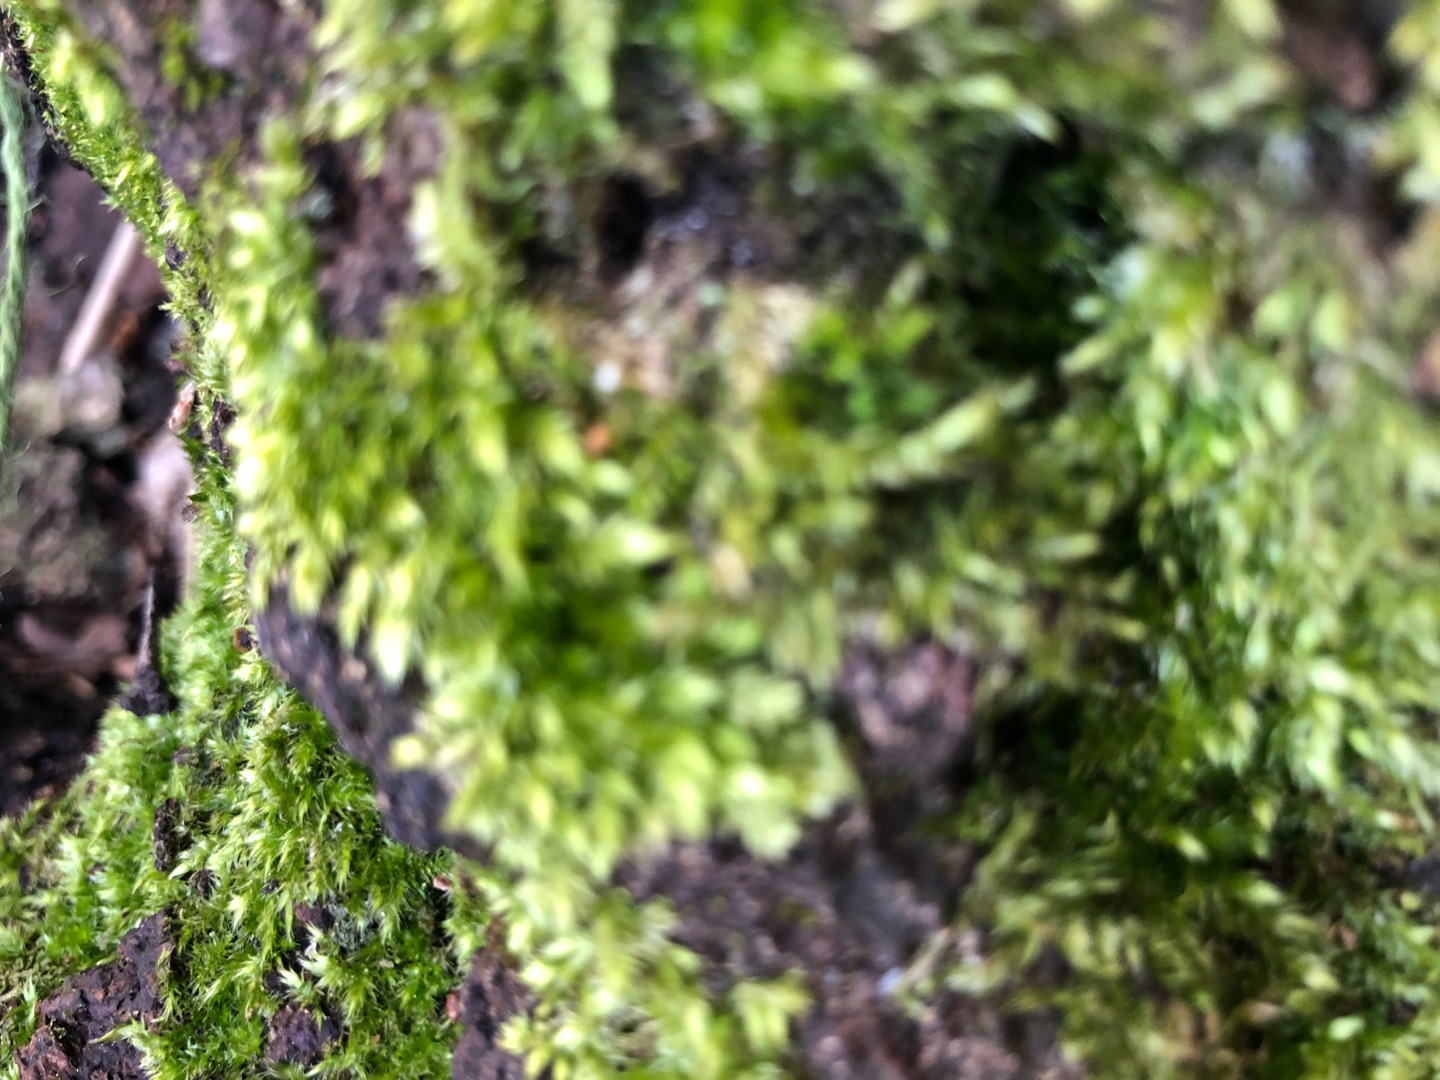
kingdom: Plantae
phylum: Bryophyta
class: Bryopsida
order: Hypnales
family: Hypnaceae
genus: Hypnum
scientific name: Hypnum
